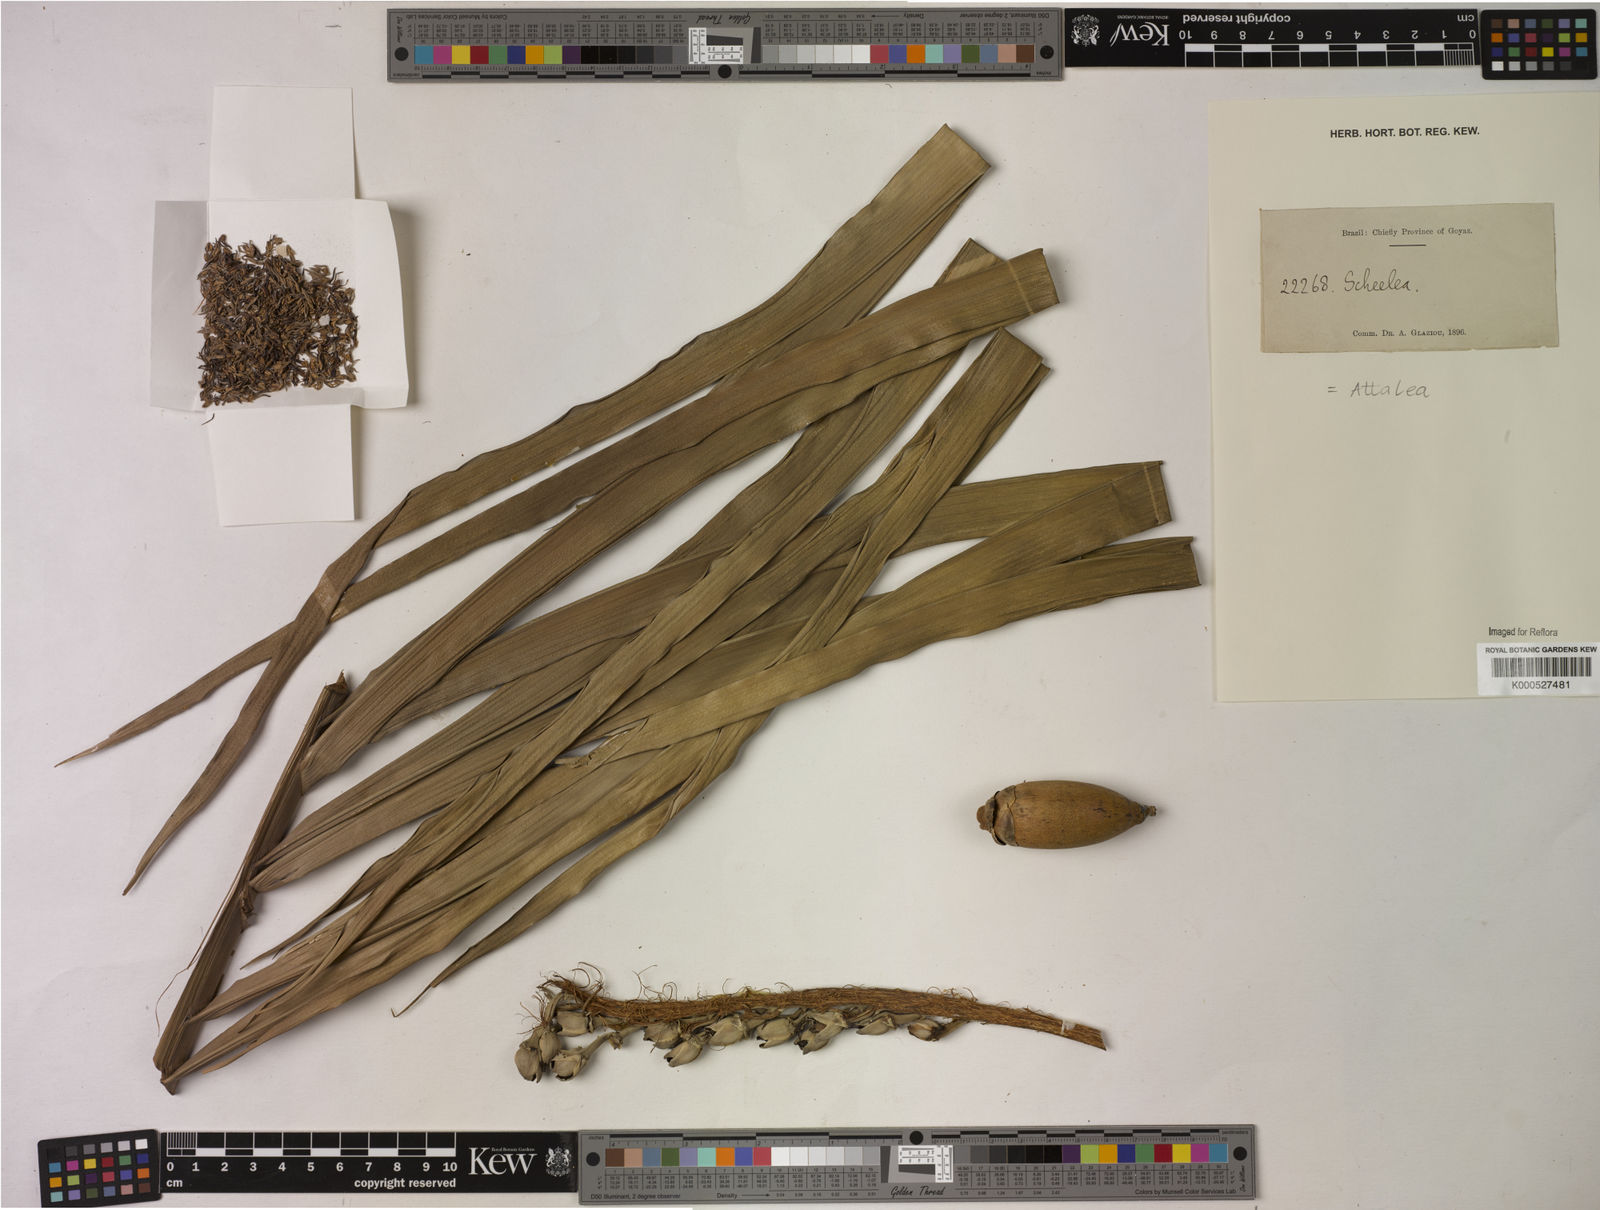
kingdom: Plantae
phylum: Tracheophyta
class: Liliopsida
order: Arecales
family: Arecaceae
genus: Attalea
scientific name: Attalea
